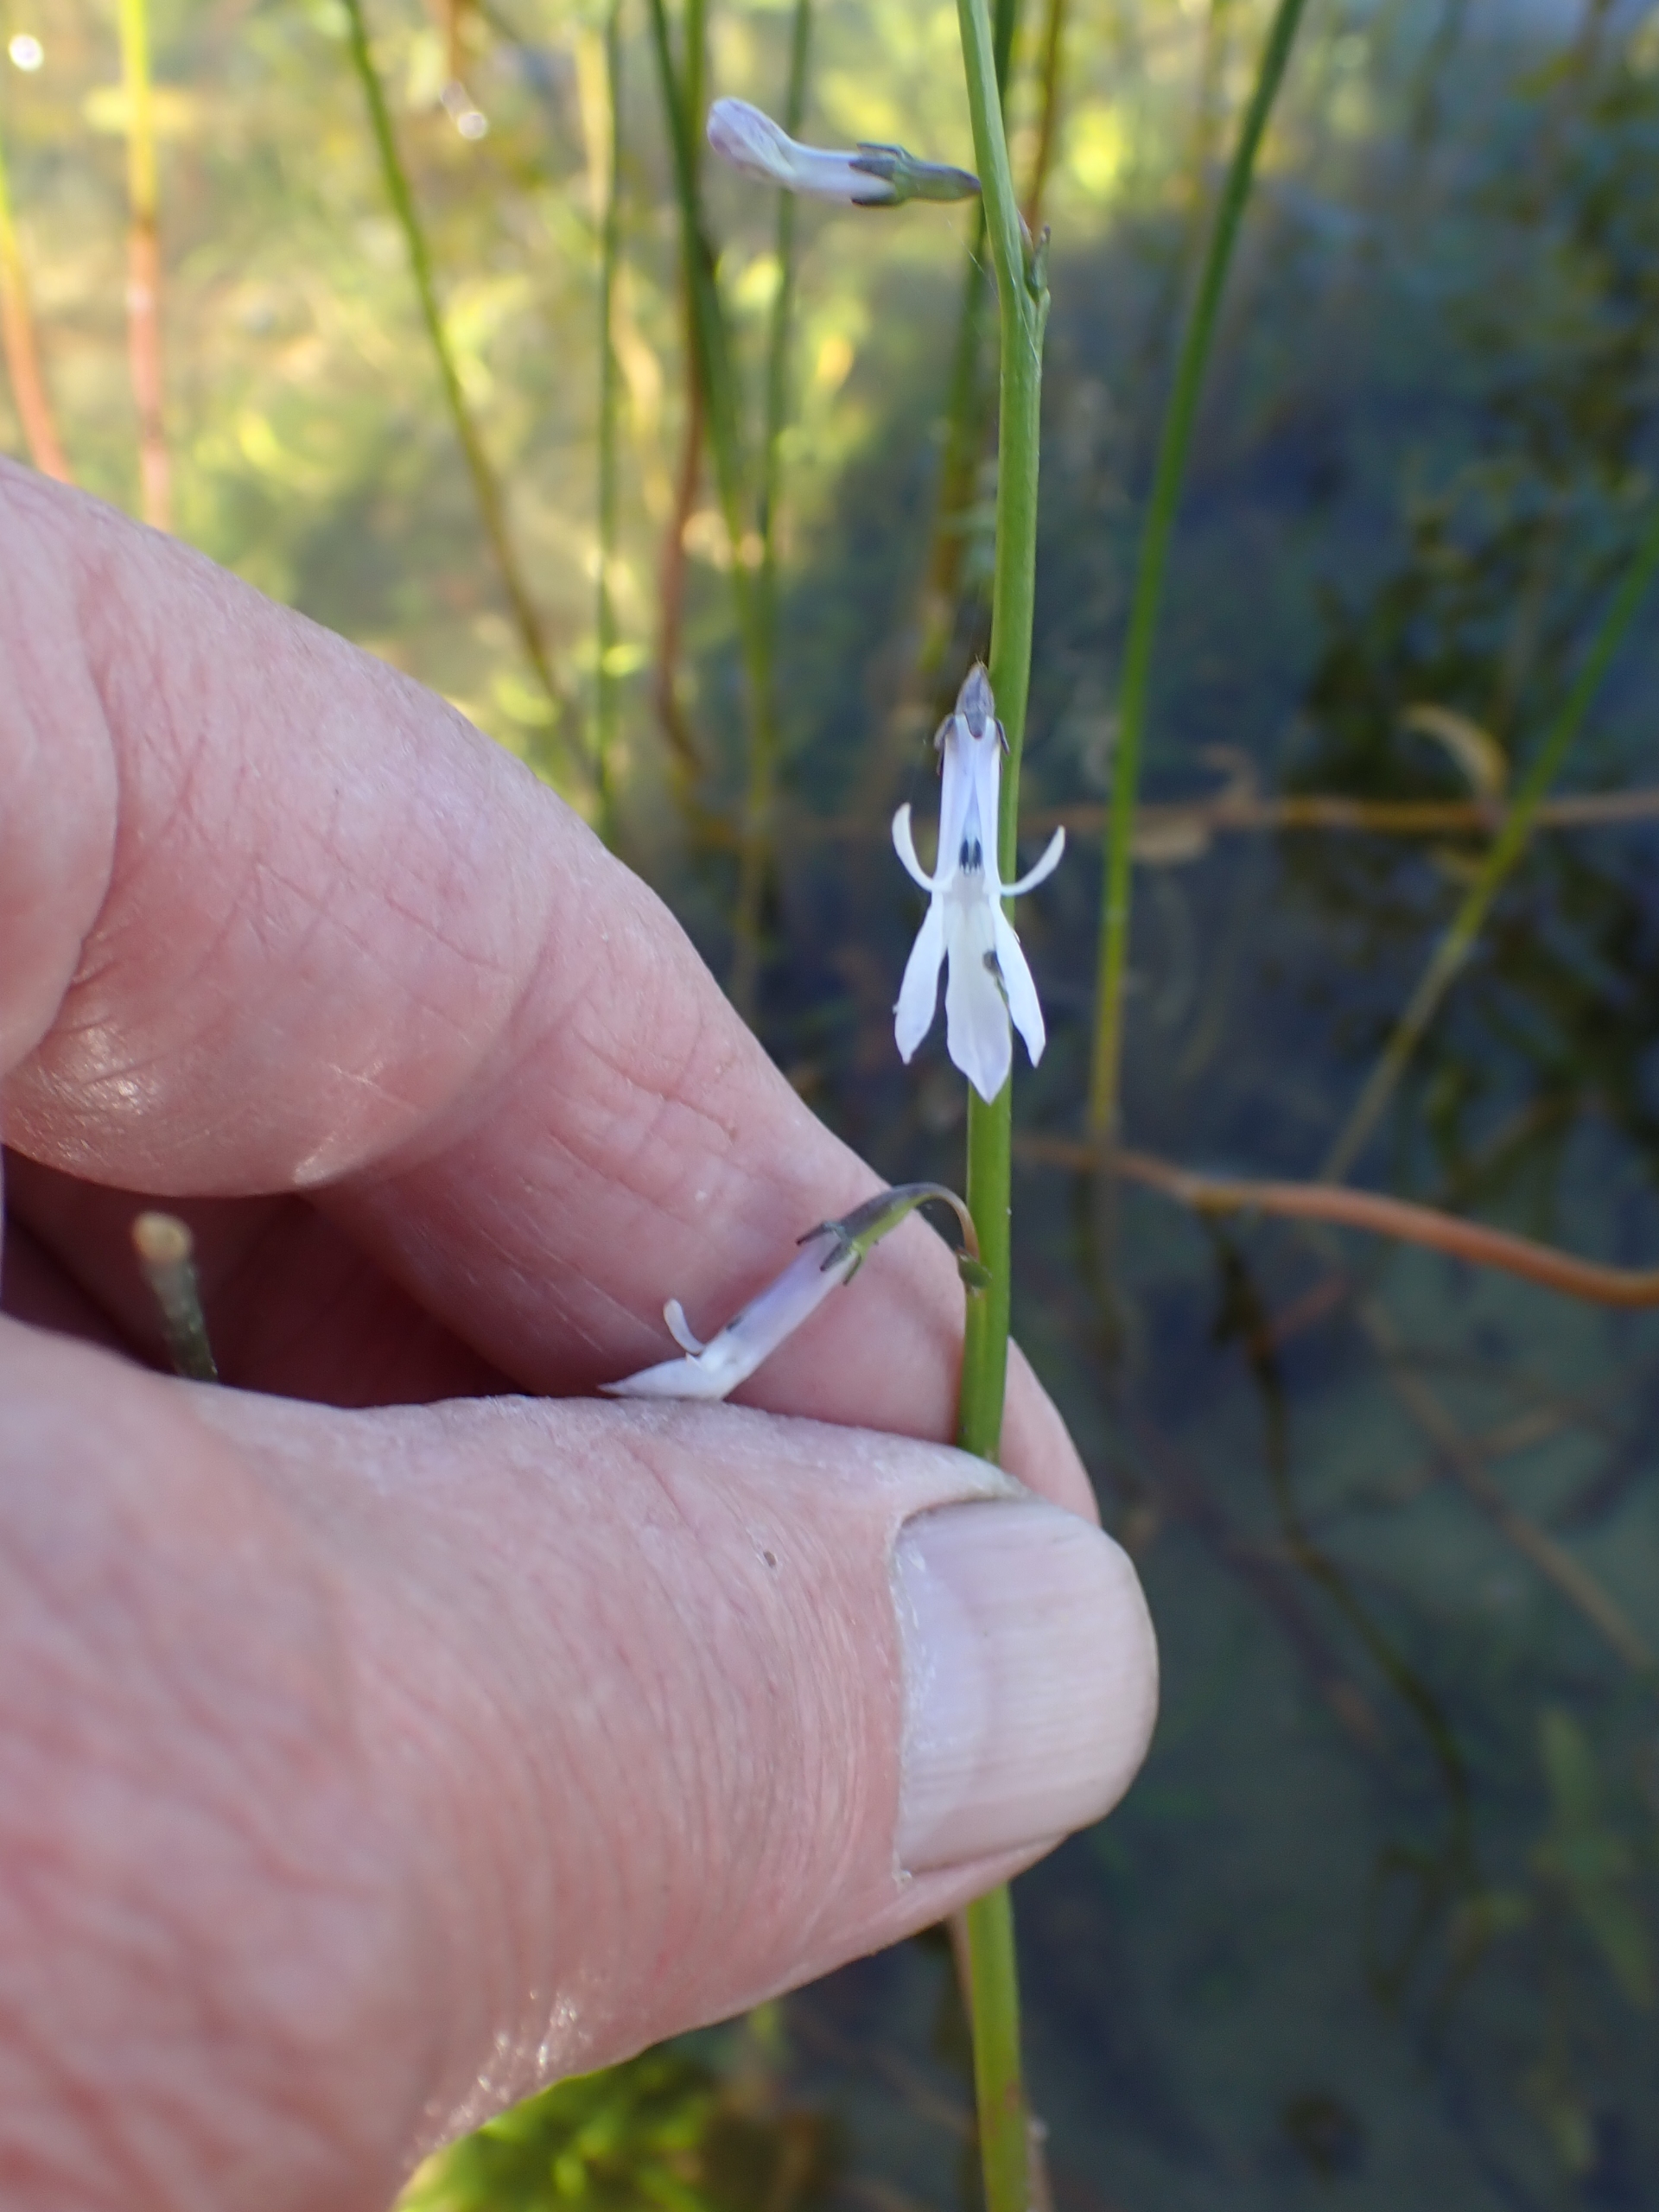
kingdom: Plantae
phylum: Tracheophyta
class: Magnoliopsida
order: Asterales
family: Campanulaceae
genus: Lobelia
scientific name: Lobelia dortmanna
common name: Tvepibet lobelie
